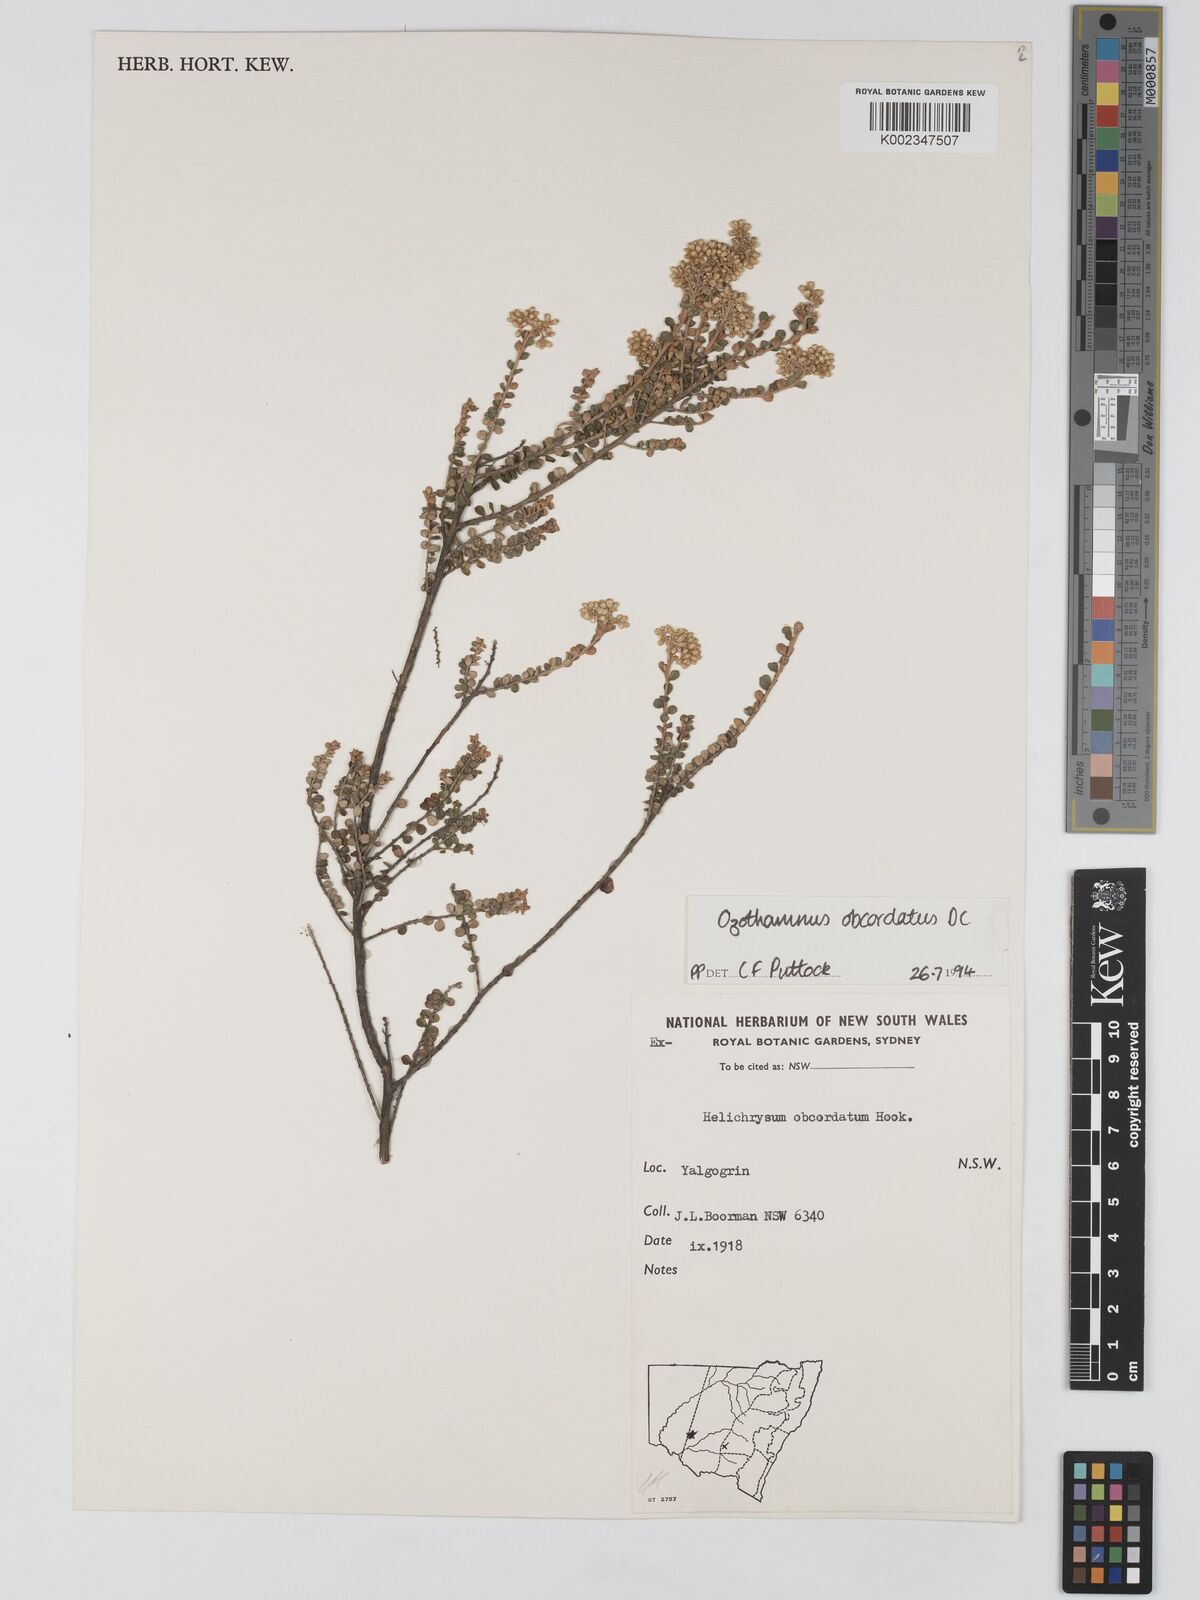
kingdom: Plantae
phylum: Tracheophyta
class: Magnoliopsida
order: Asterales
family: Asteraceae
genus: Ozothamnus
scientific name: Ozothamnus
